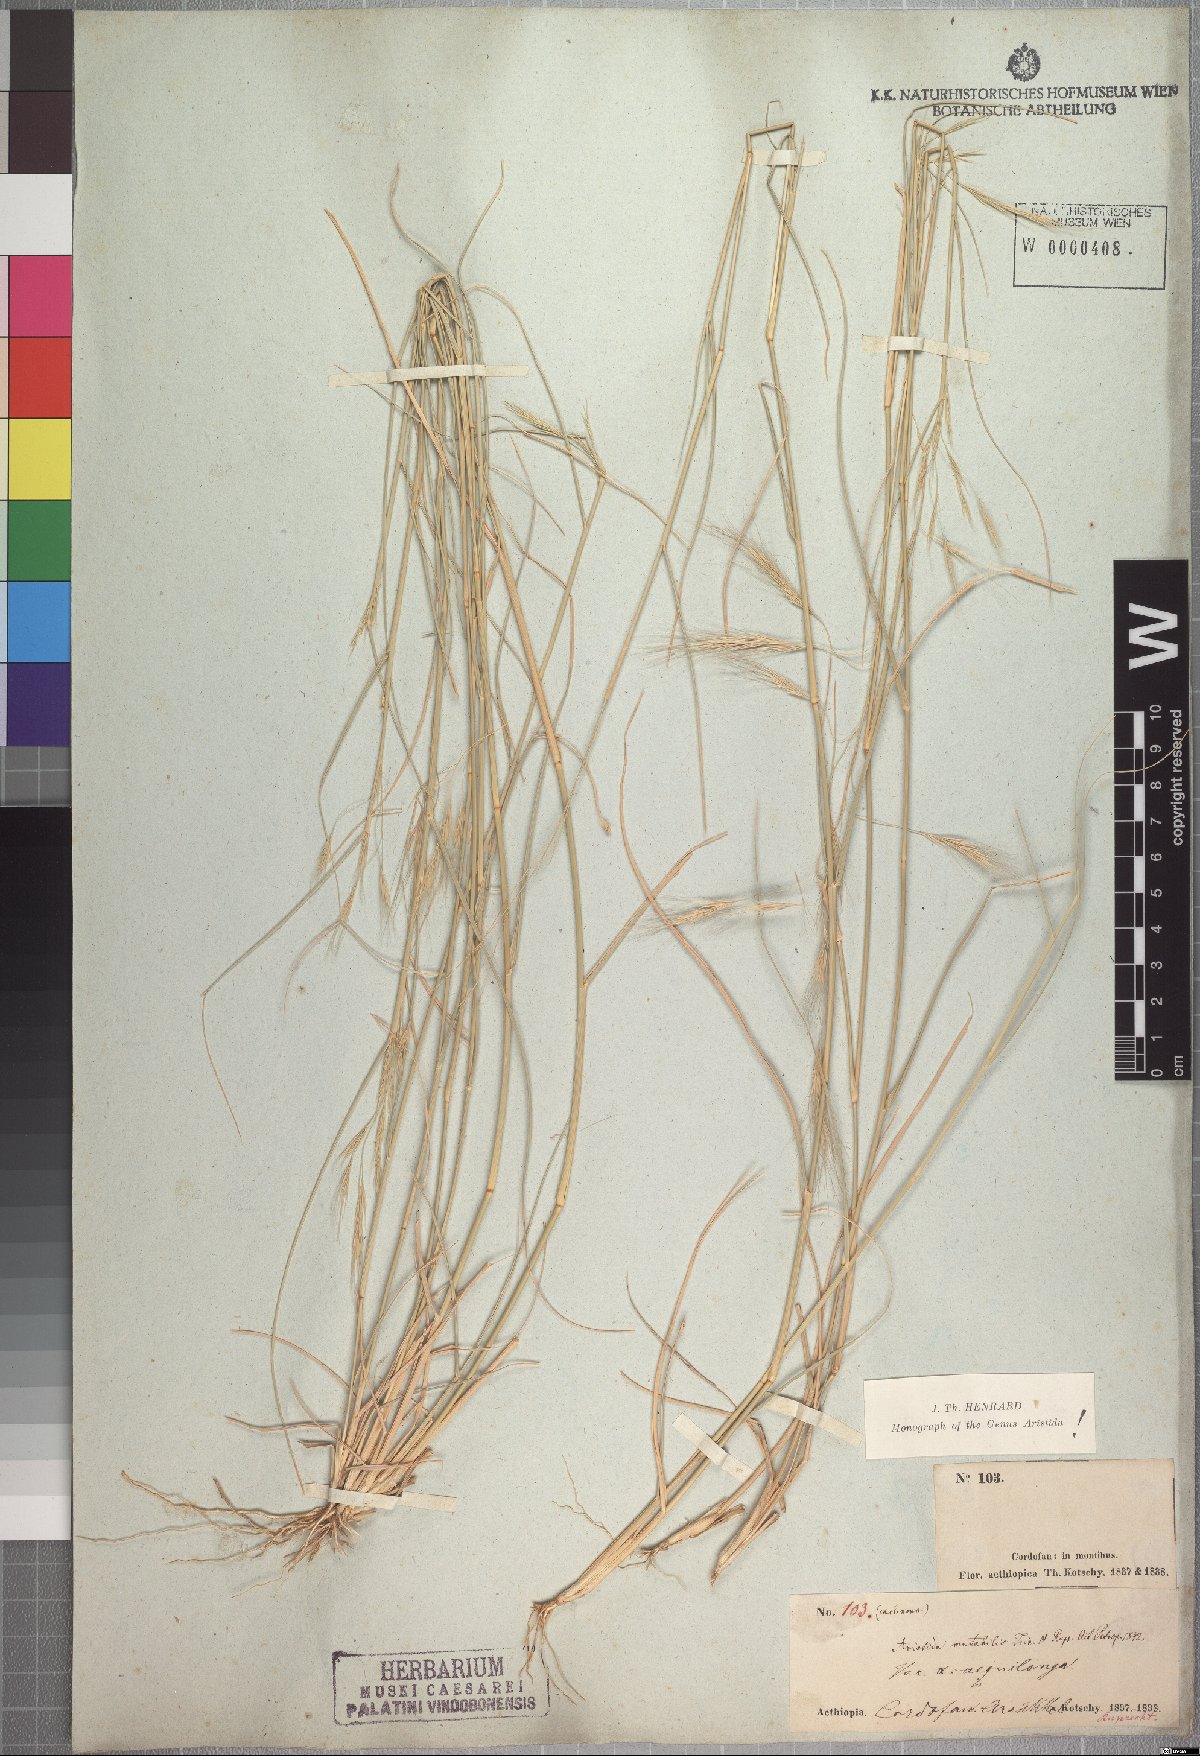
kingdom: Plantae
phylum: Tracheophyta
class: Liliopsida
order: Poales
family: Poaceae
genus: Aristida
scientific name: Aristida mutabilis
